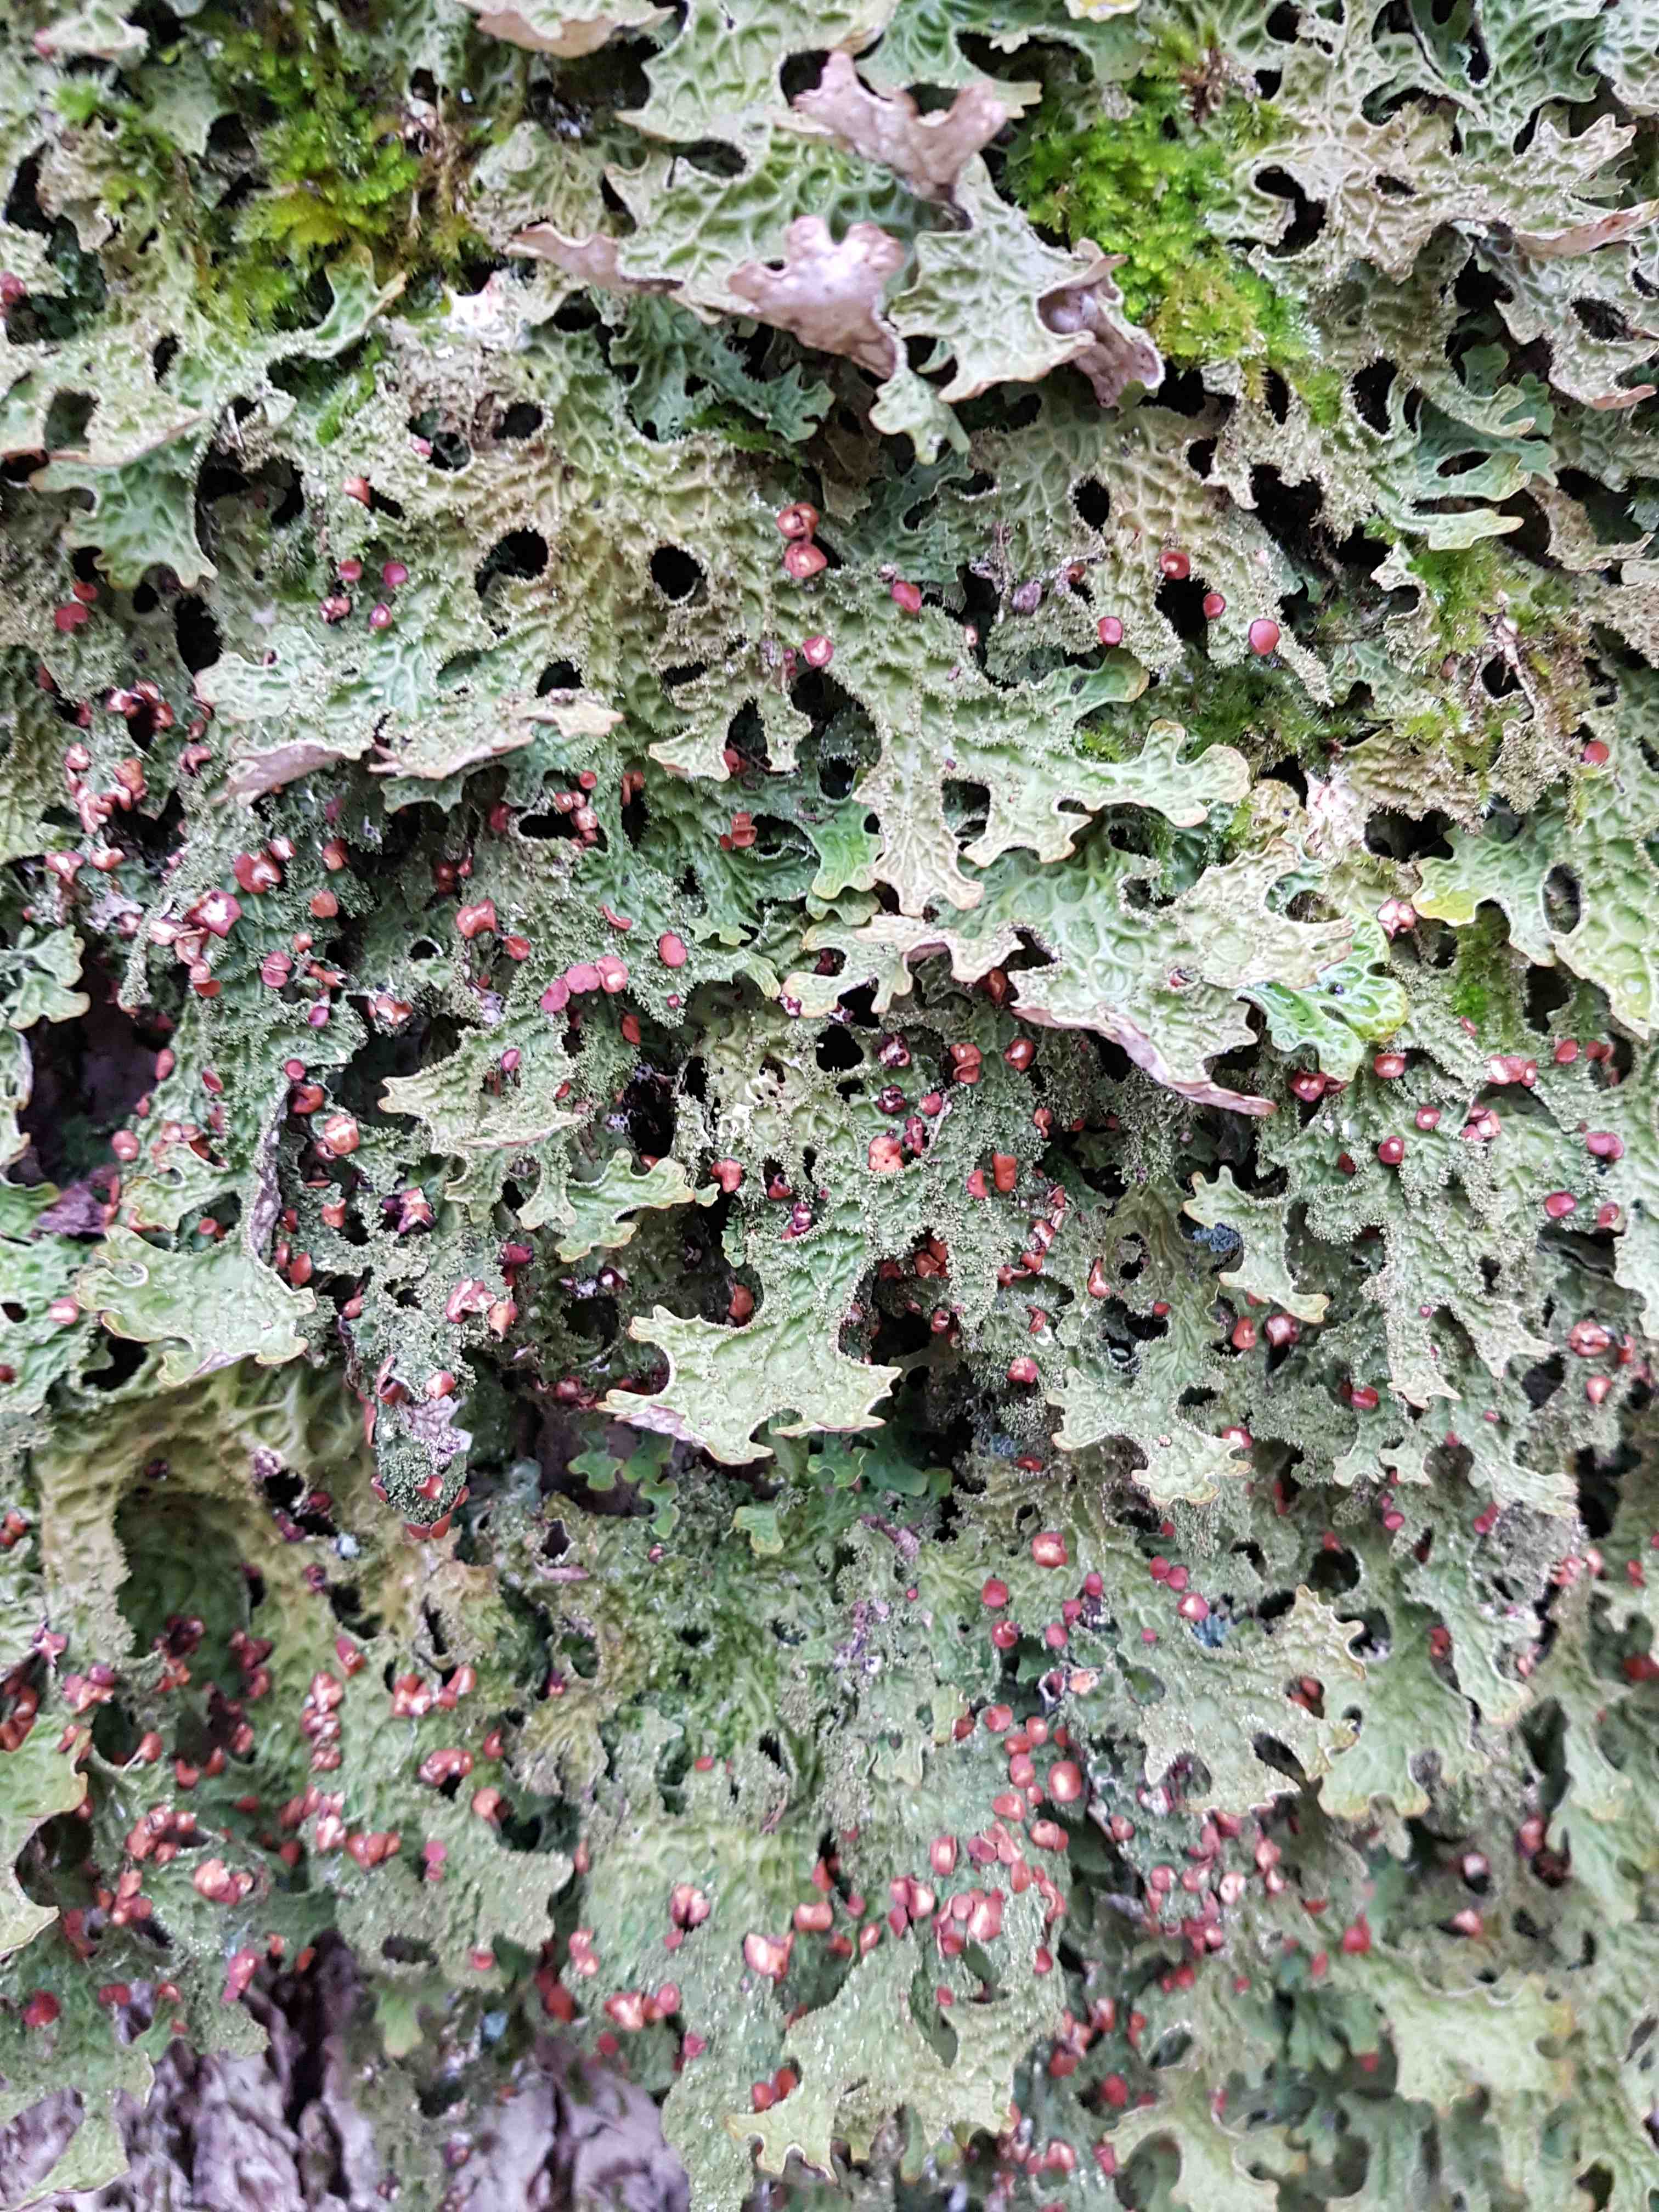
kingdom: Fungi
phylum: Ascomycota
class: Lecanoromycetes
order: Peltigerales
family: Lobariaceae
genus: Lobaria
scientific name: Lobaria pulmonaria
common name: almindelig lungelav
